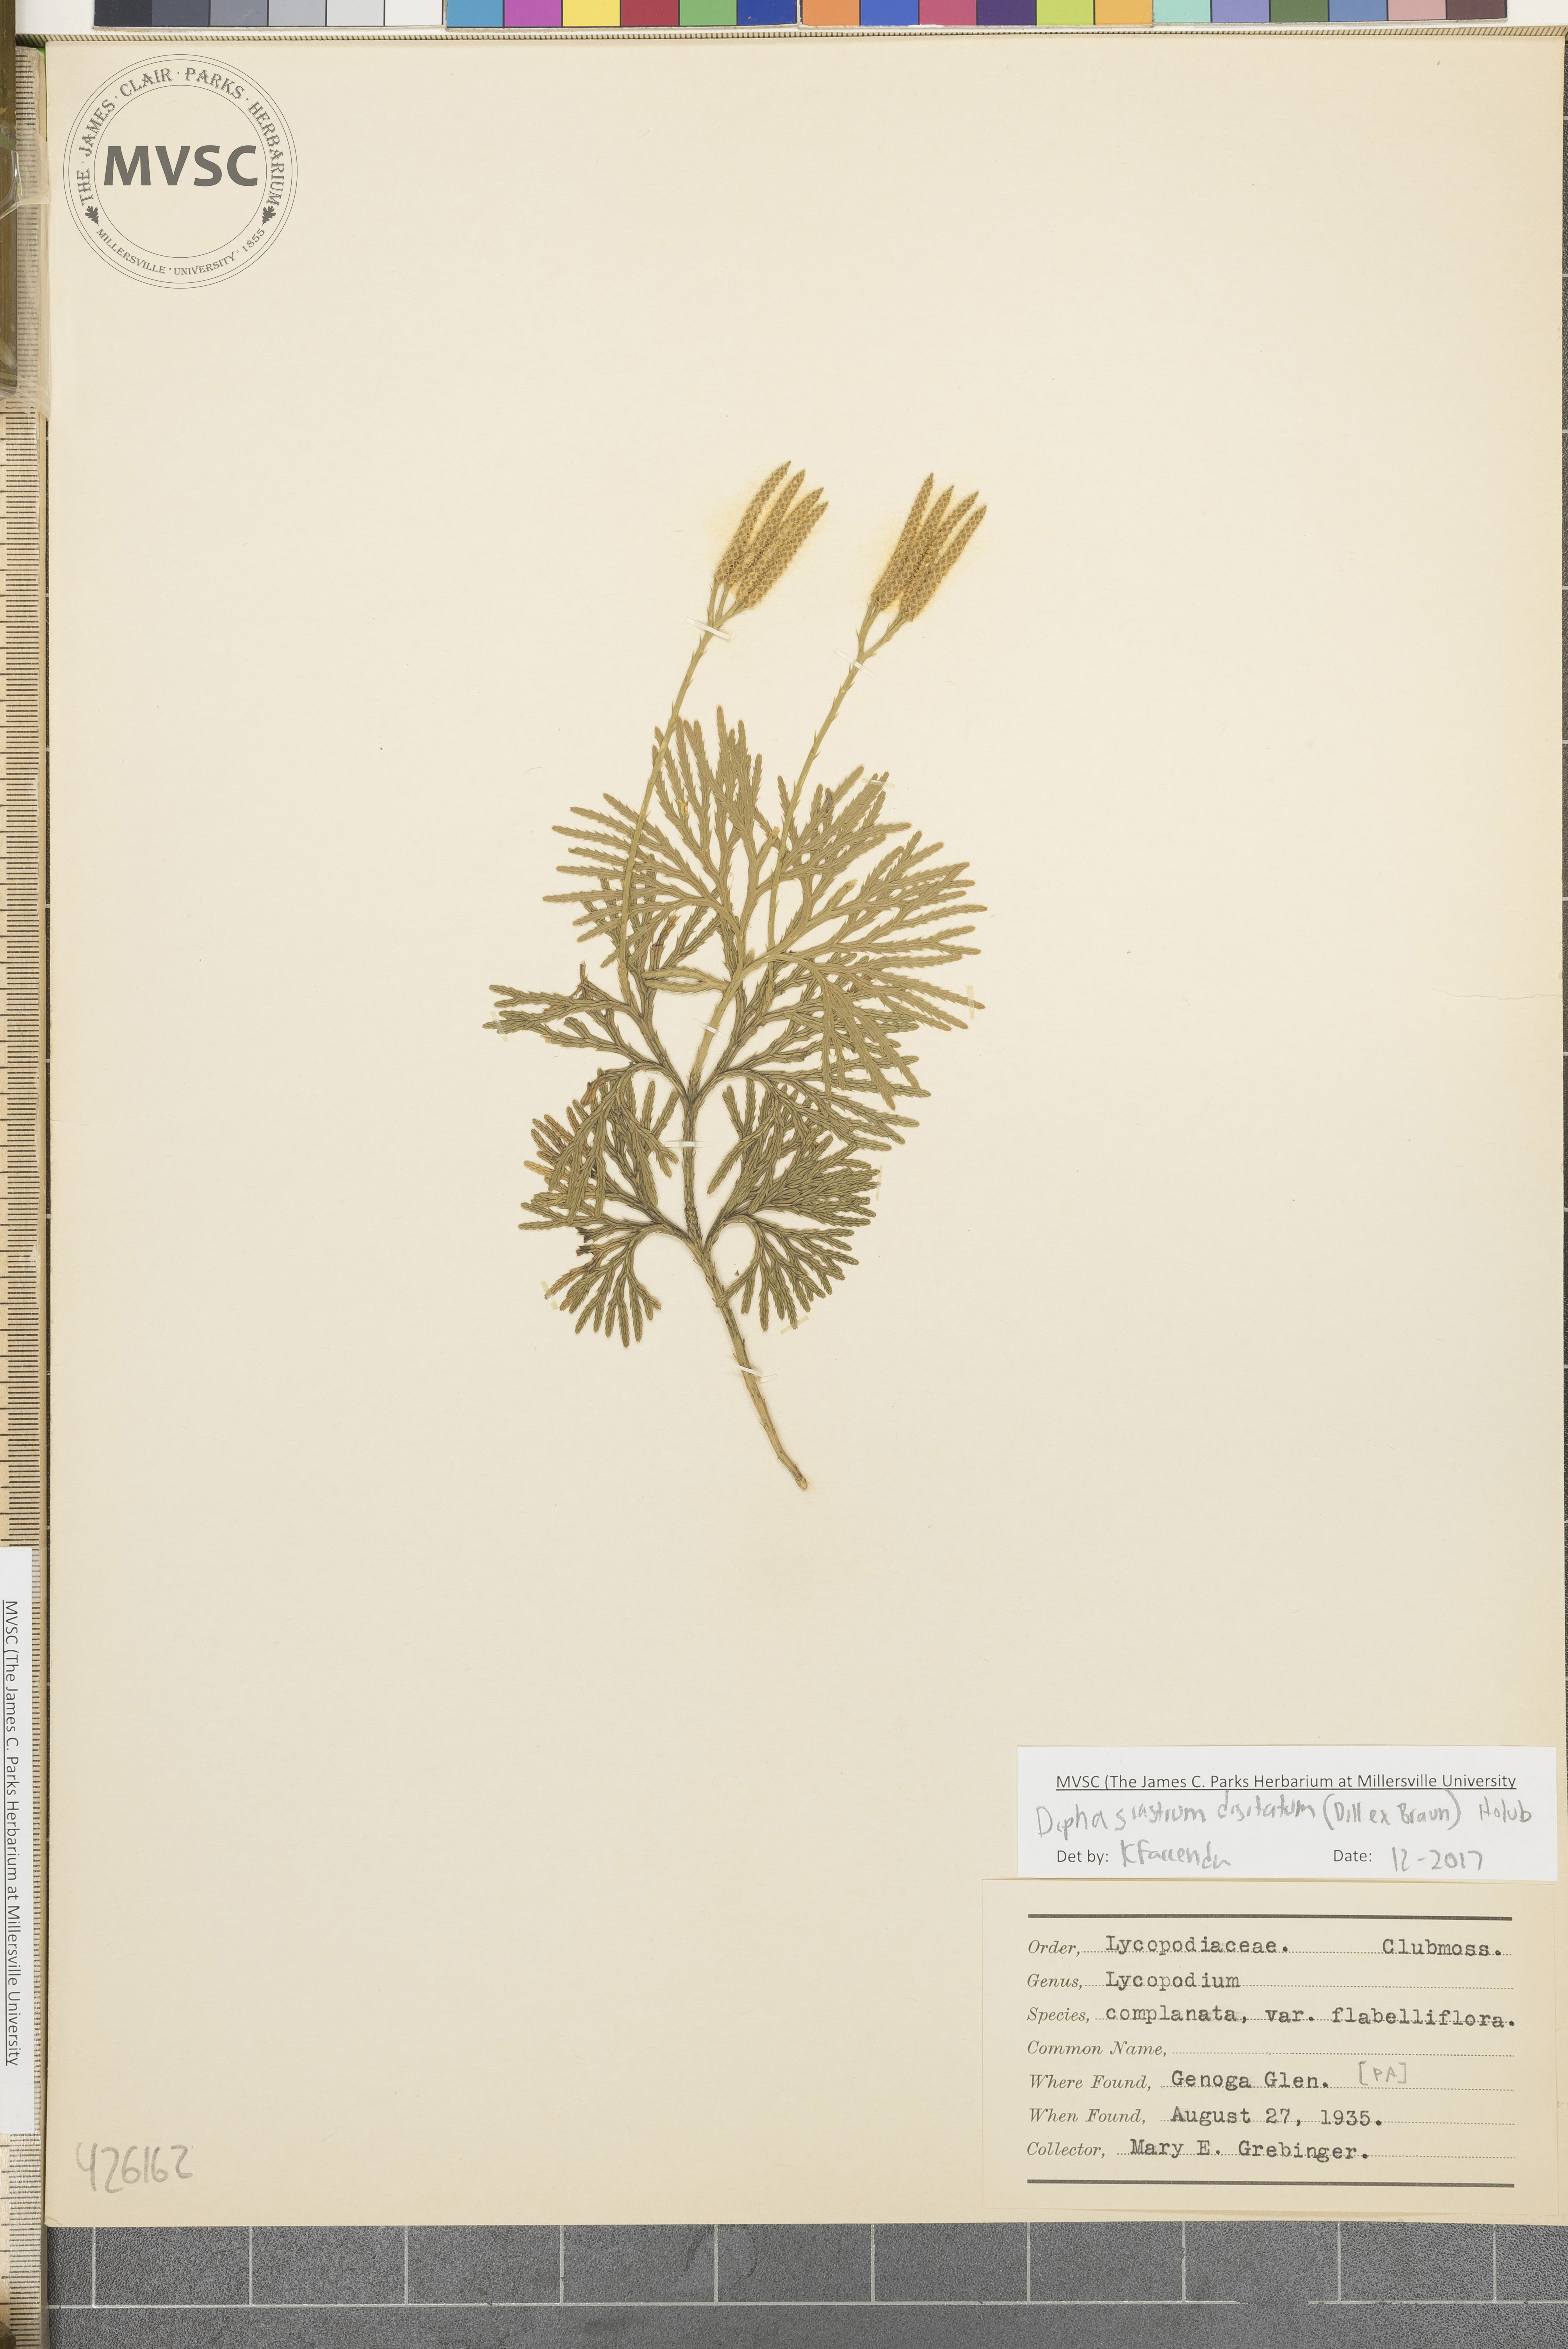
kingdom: Plantae
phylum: Tracheophyta
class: Lycopodiopsida
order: Lycopodiales
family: Lycopodiaceae
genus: Diphasiastrum
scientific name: Diphasiastrum digitatum
